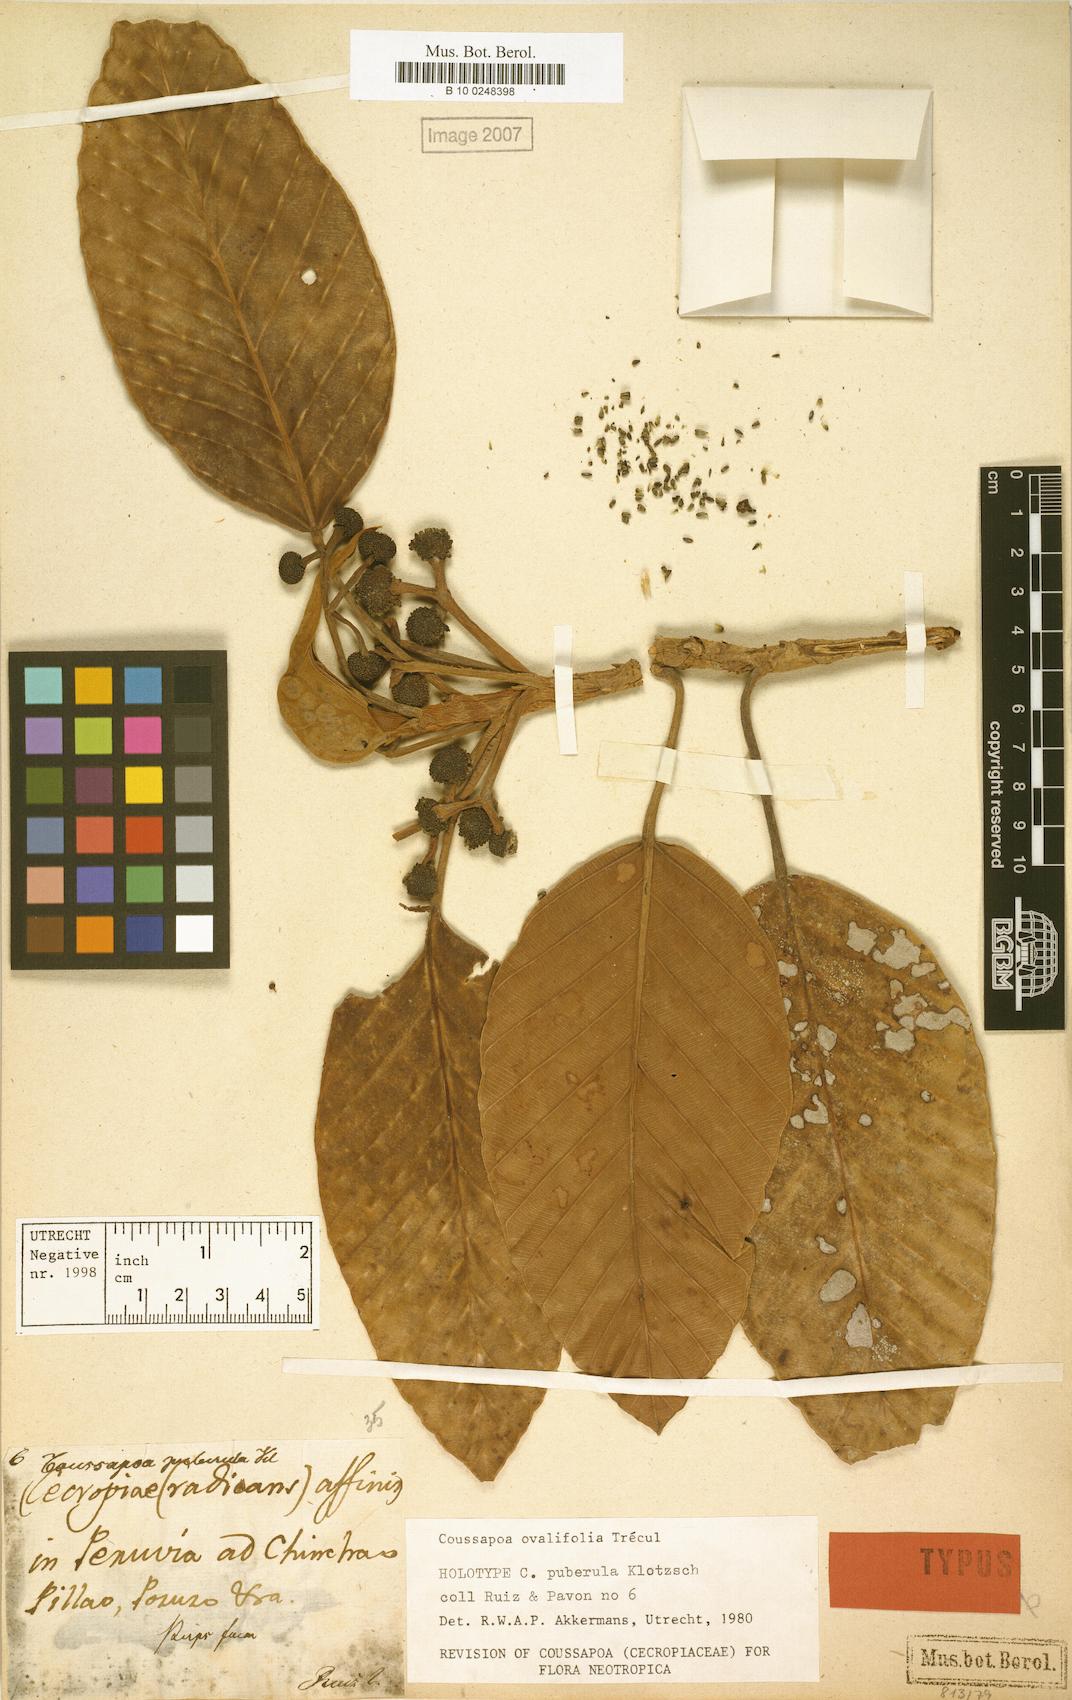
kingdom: Plantae
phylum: Tracheophyta
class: Magnoliopsida
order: Rosales
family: Urticaceae
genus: Coussapoa
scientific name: Coussapoa ovalifolia
